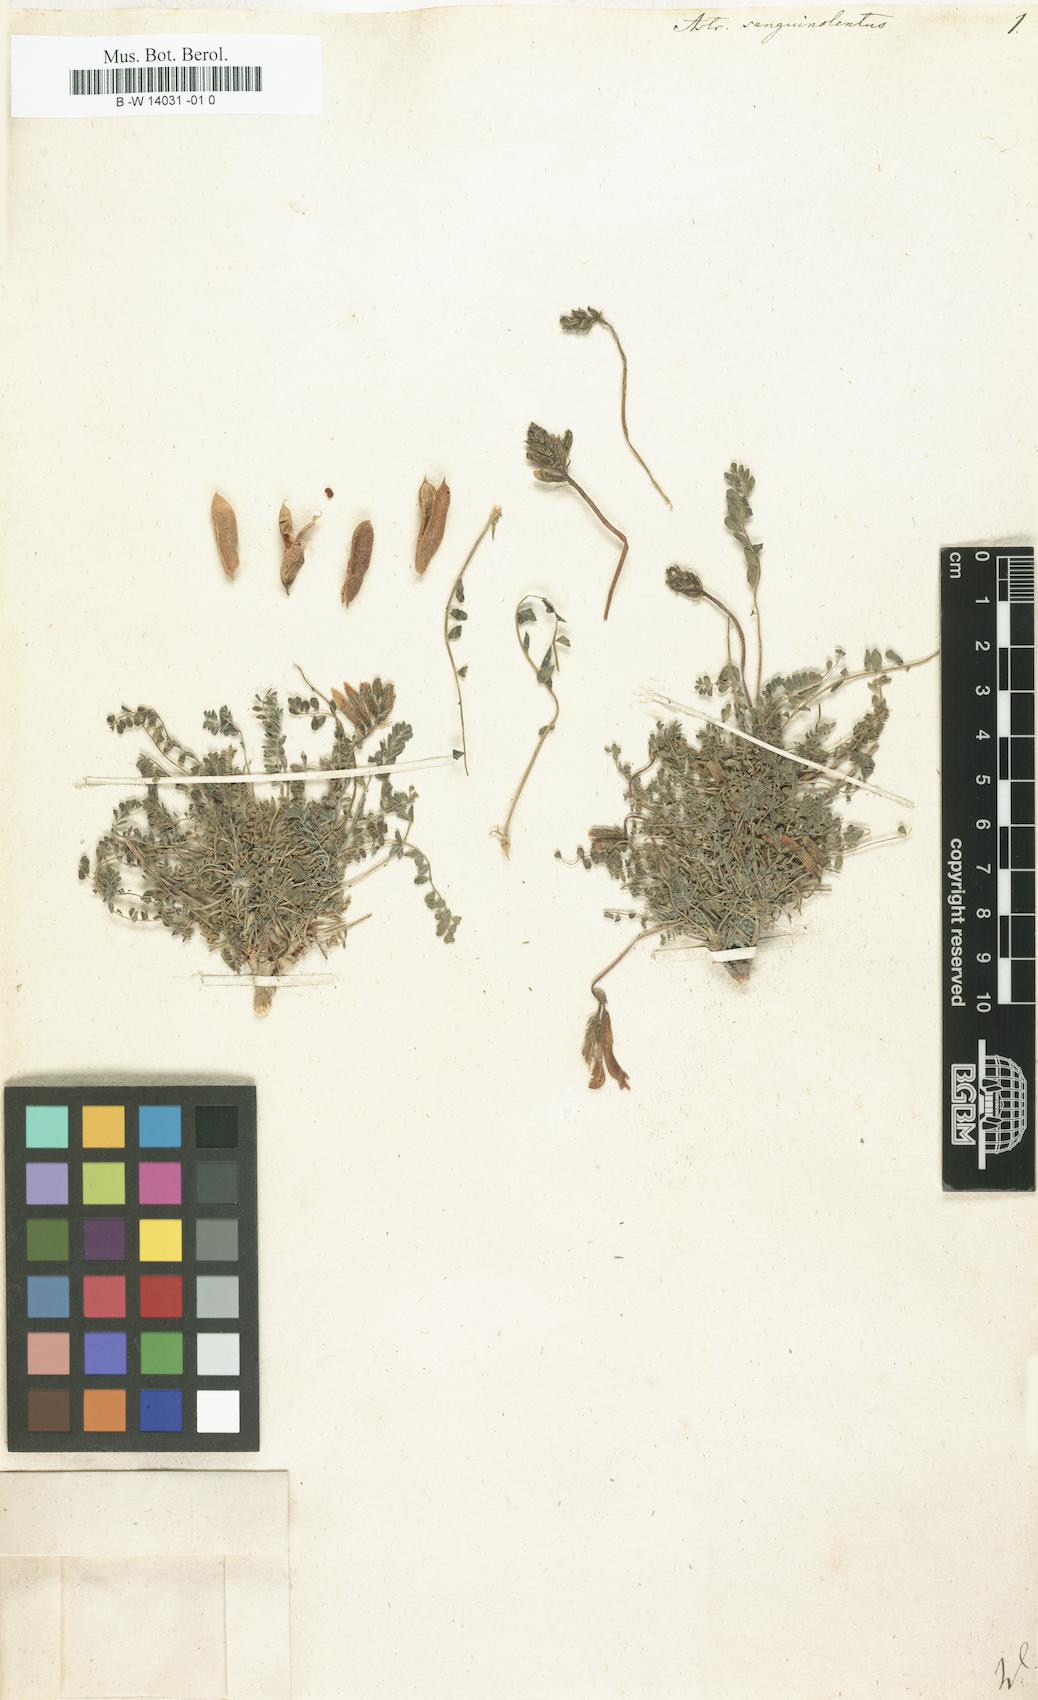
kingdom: Plantae
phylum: Tracheophyta
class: Magnoliopsida
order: Fabales
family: Fabaceae
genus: Astragalus
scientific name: Astragalus sanguinolentus
